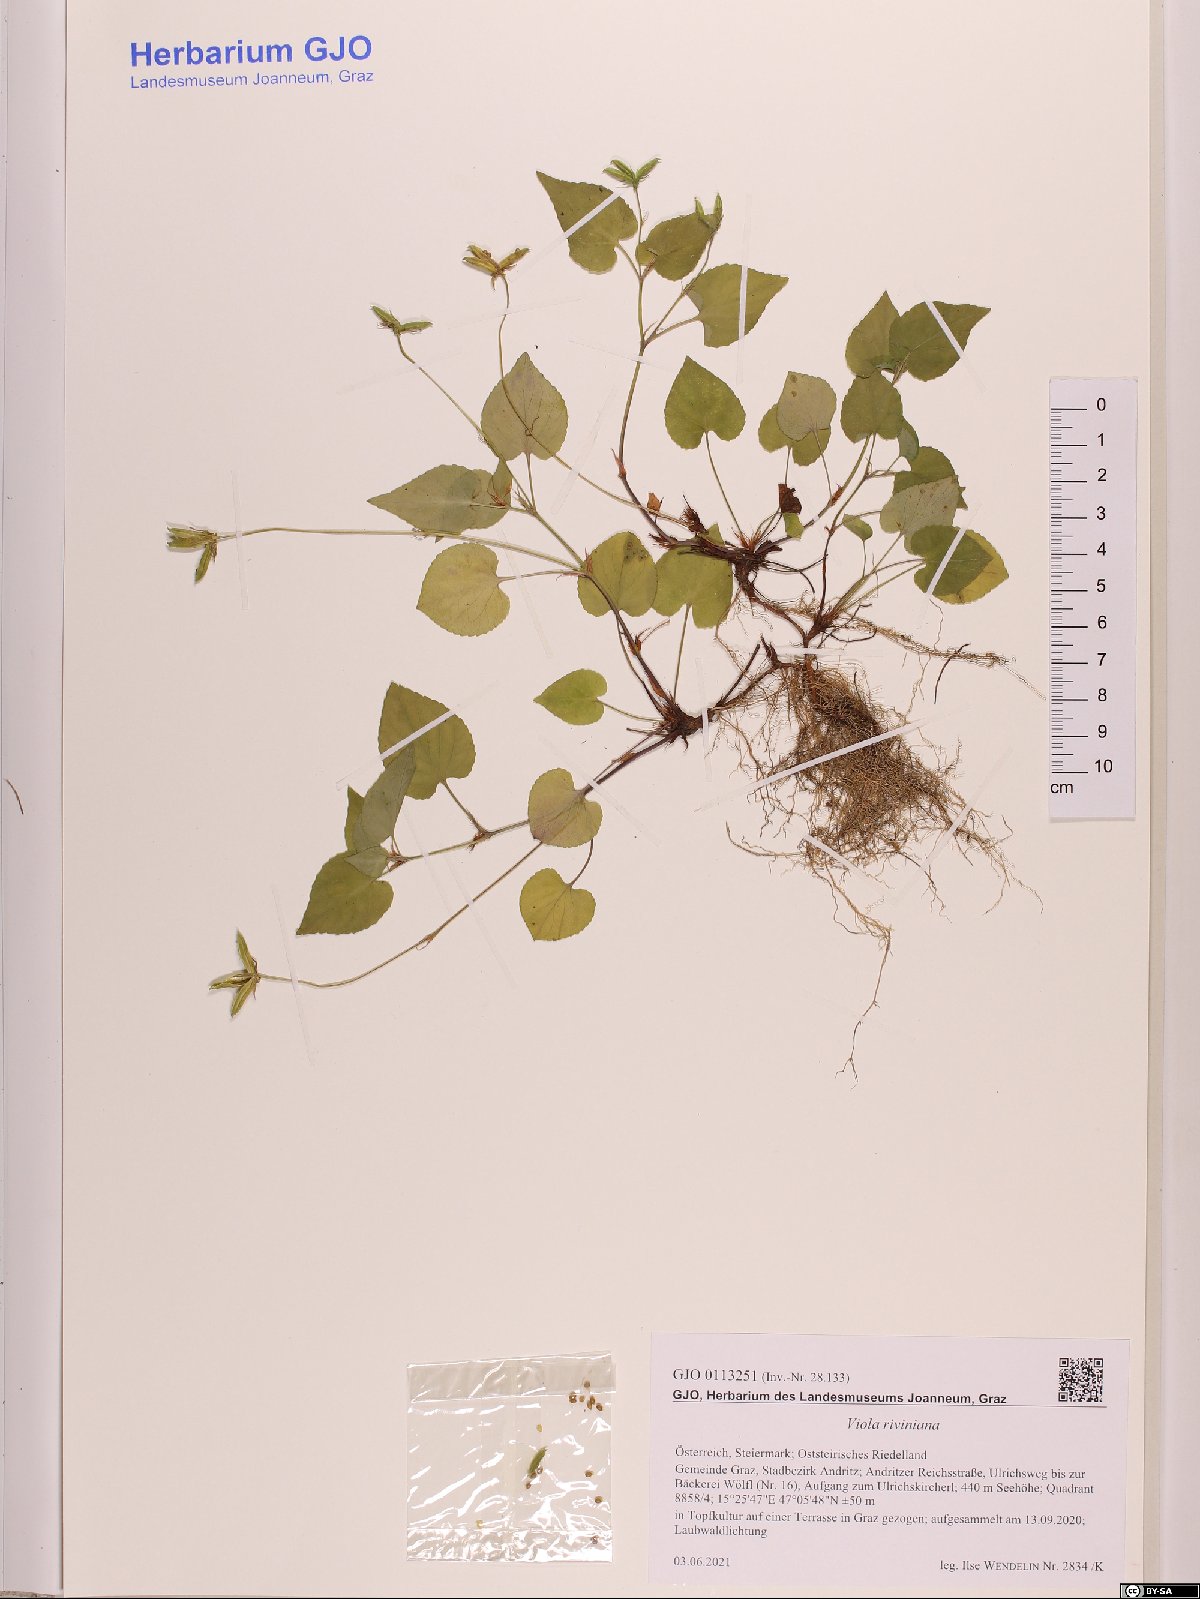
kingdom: Plantae
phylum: Tracheophyta
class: Magnoliopsida
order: Malpighiales
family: Violaceae
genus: Viola
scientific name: Viola riviniana
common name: Common dog-violet
